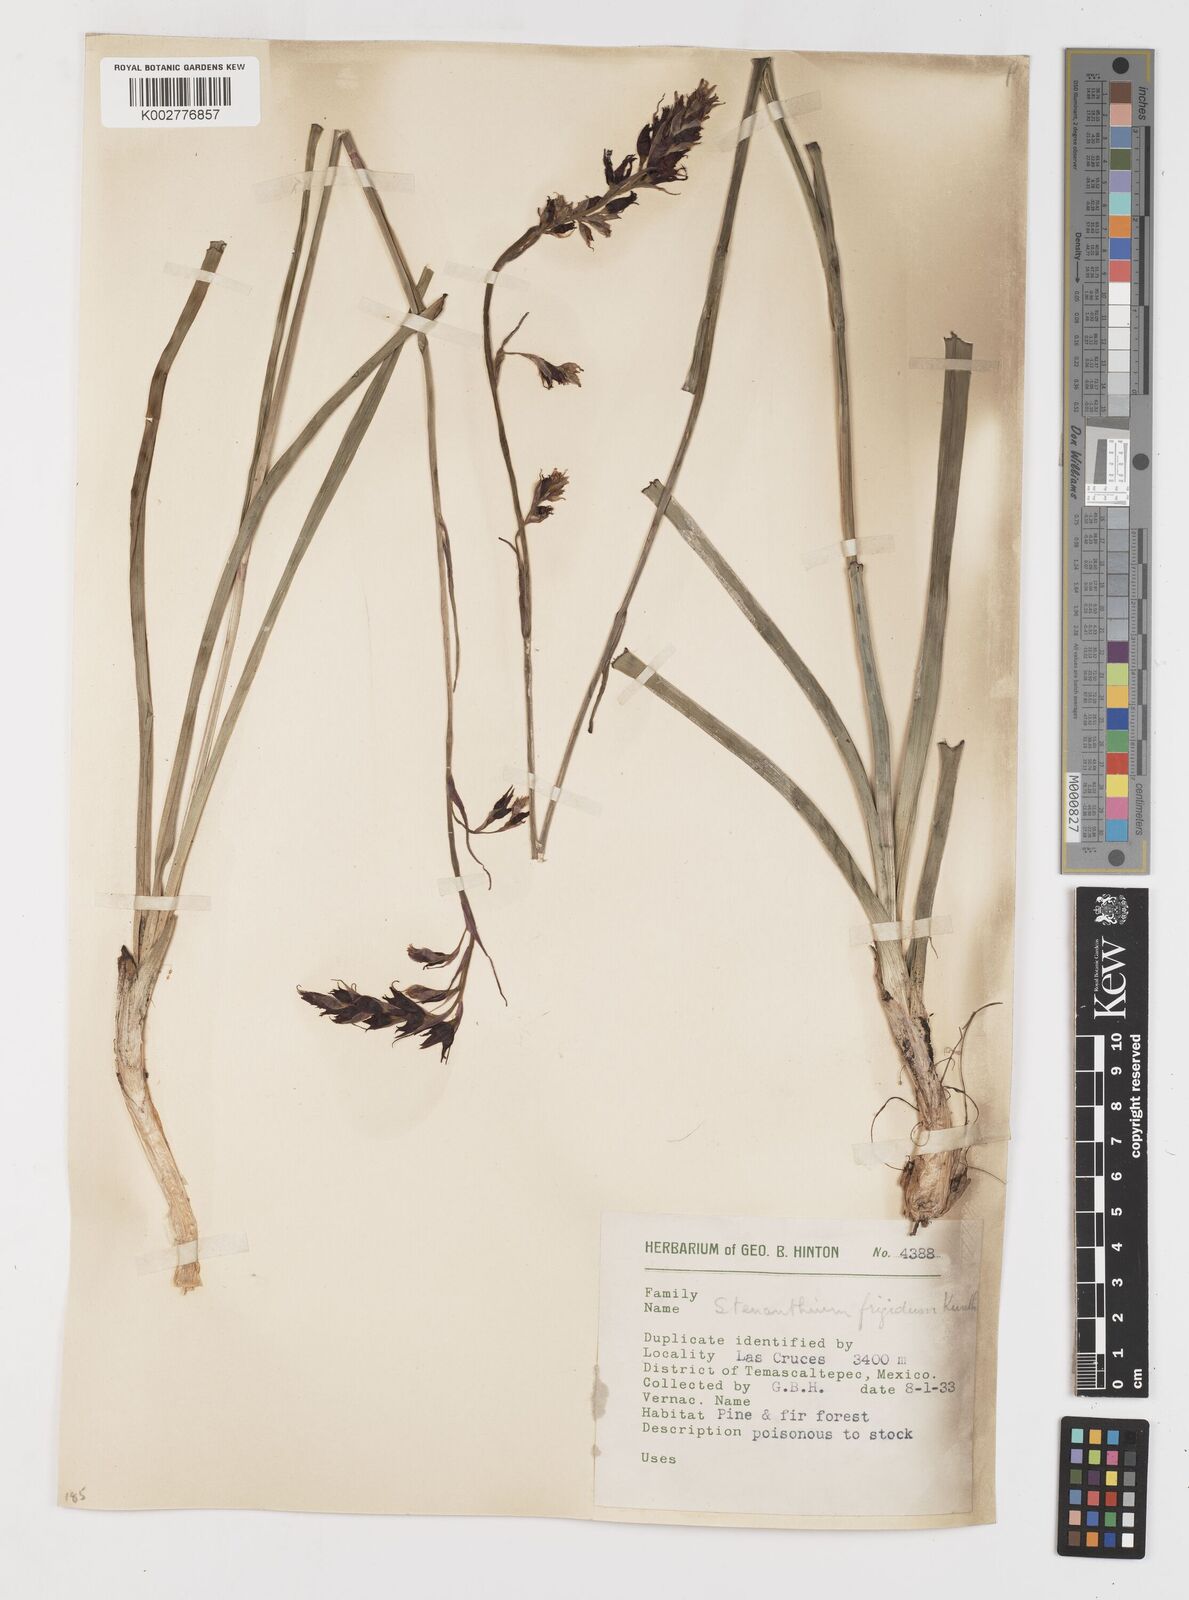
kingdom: Plantae
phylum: Tracheophyta
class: Liliopsida
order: Liliales
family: Melanthiaceae
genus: Anticlea
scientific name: Anticlea frigida
